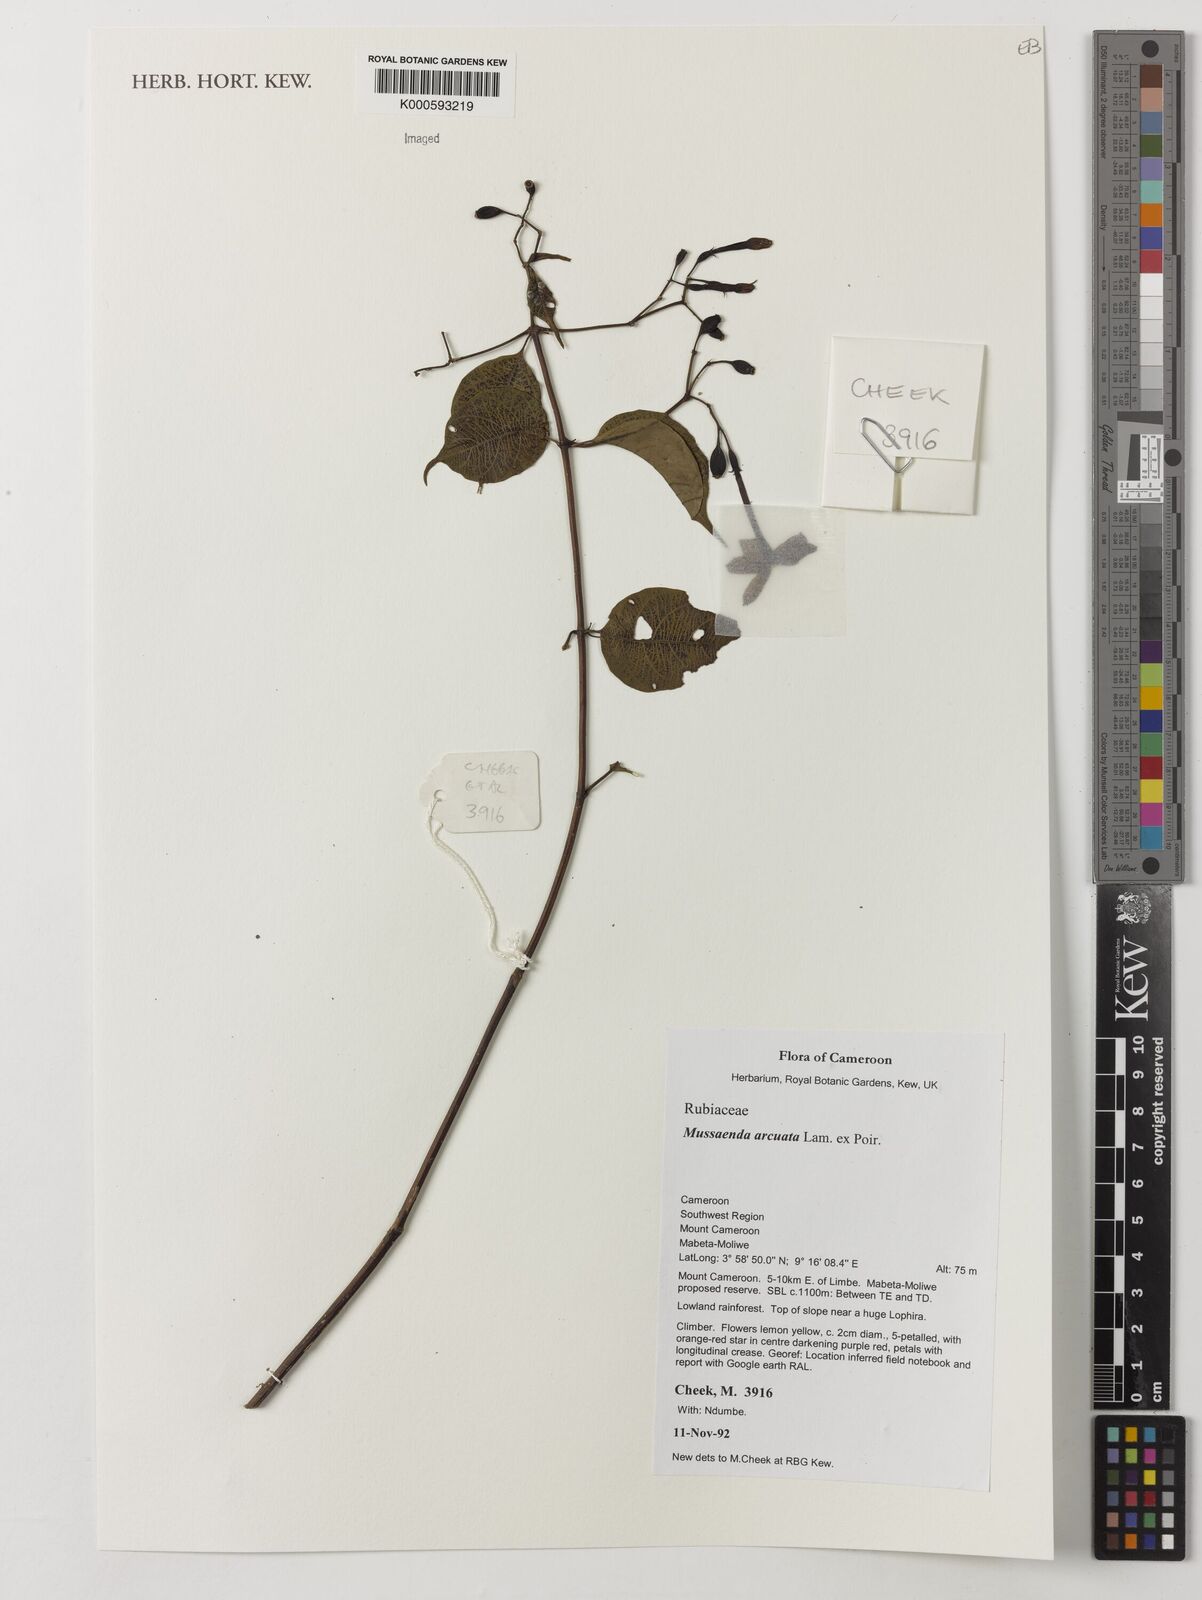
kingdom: Plantae
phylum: Tracheophyta
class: Magnoliopsida
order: Gentianales
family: Rubiaceae
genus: Mussaenda
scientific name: Mussaenda arcuata
